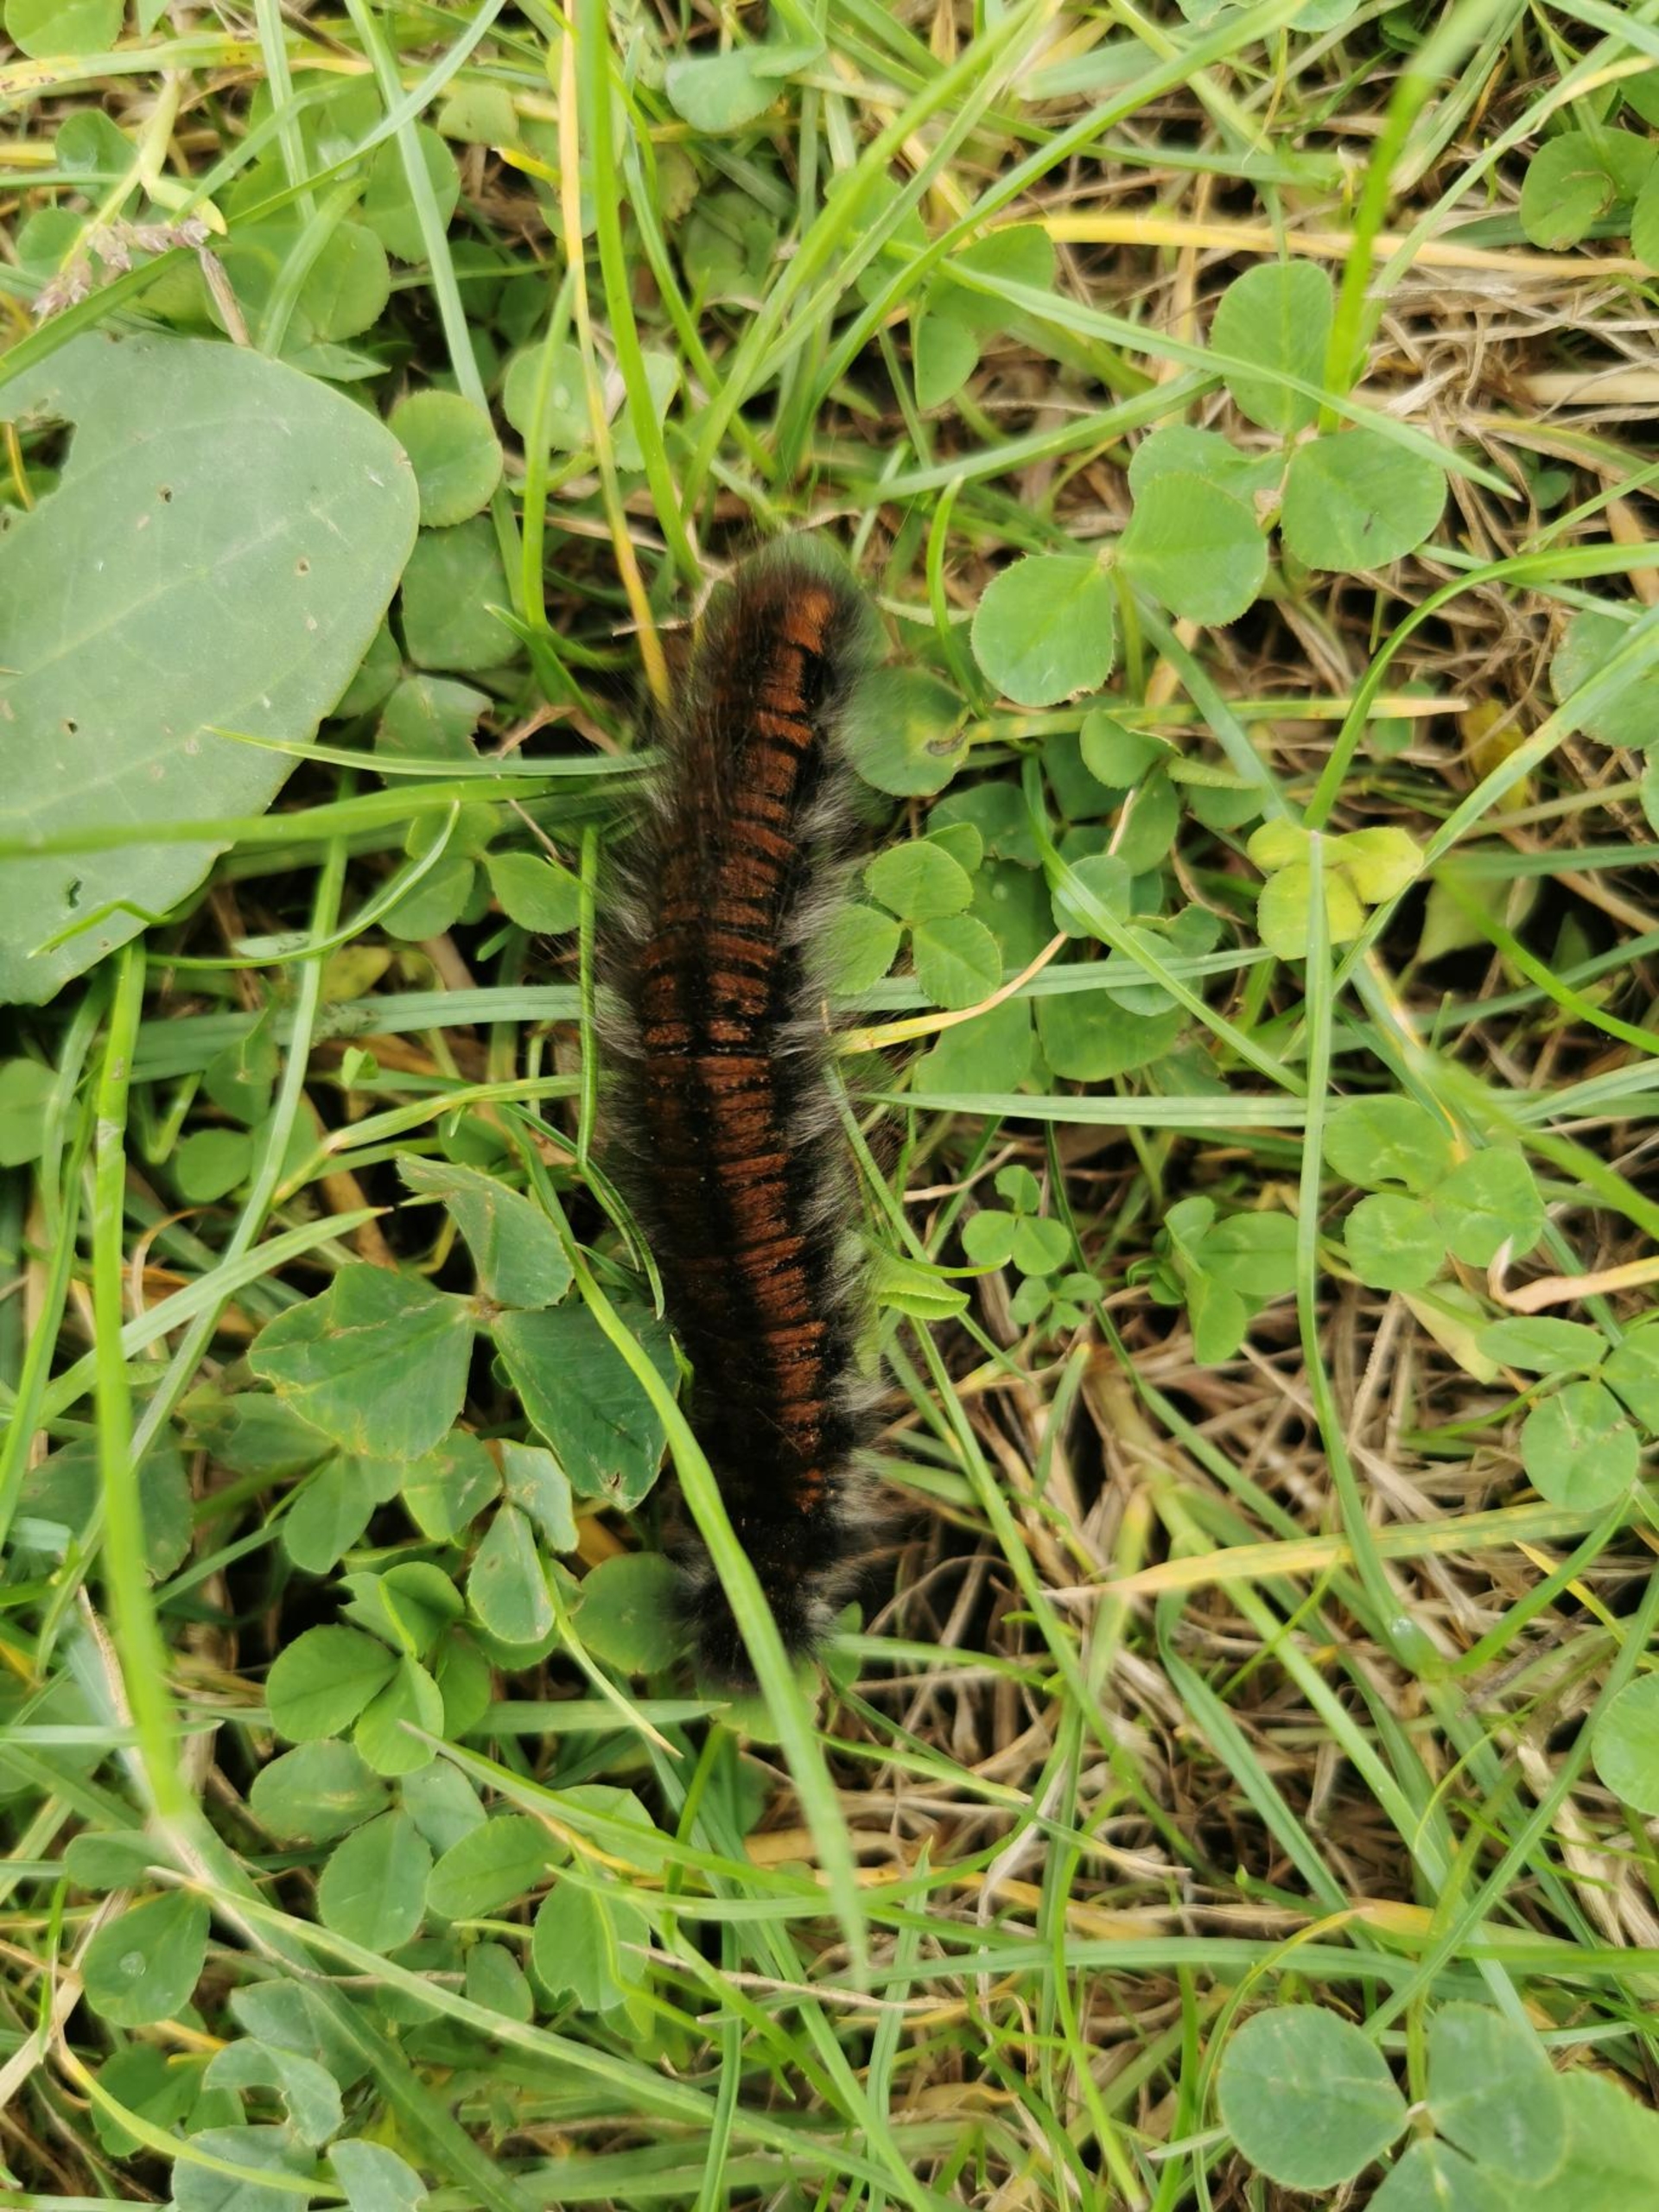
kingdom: Animalia
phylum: Arthropoda
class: Insecta
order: Lepidoptera
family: Lasiocampidae
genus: Macrothylacia
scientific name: Macrothylacia rubi
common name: Brombærspinder
